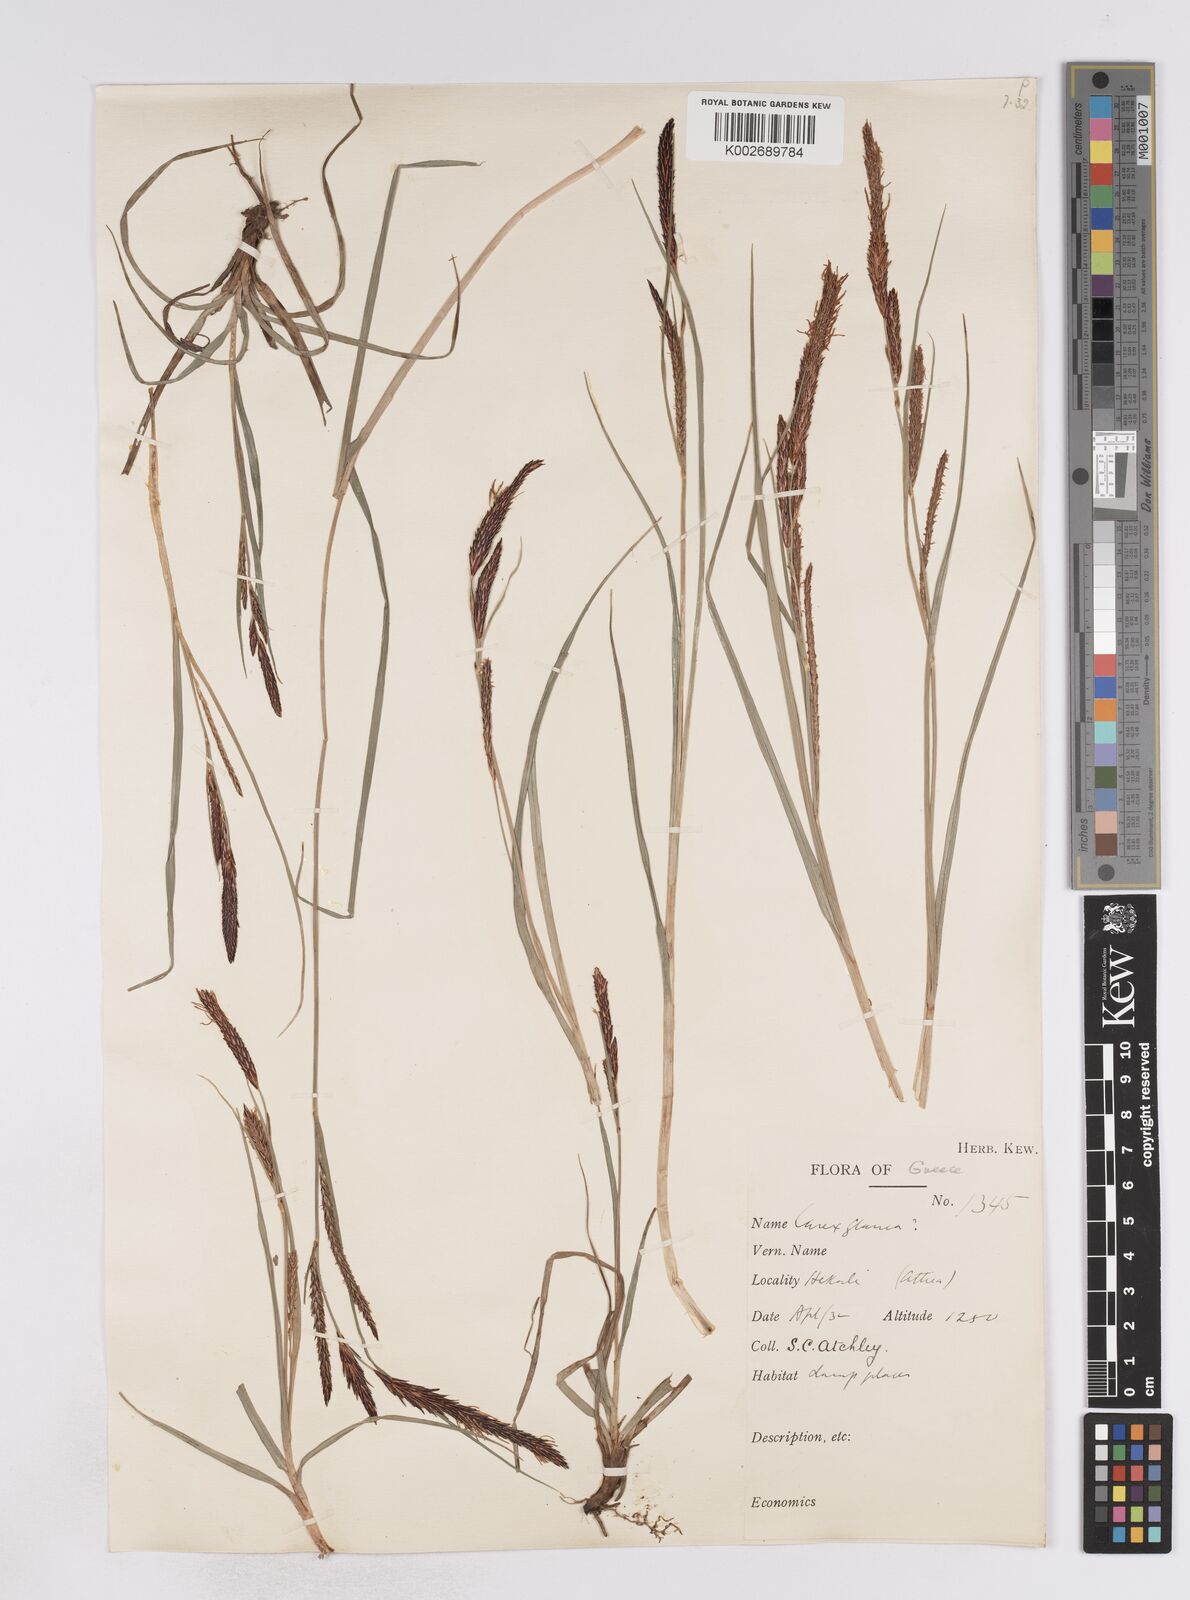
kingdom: Plantae
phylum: Tracheophyta
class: Liliopsida
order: Poales
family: Cyperaceae
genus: Carex
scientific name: Carex flacca
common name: Glaucous sedge
